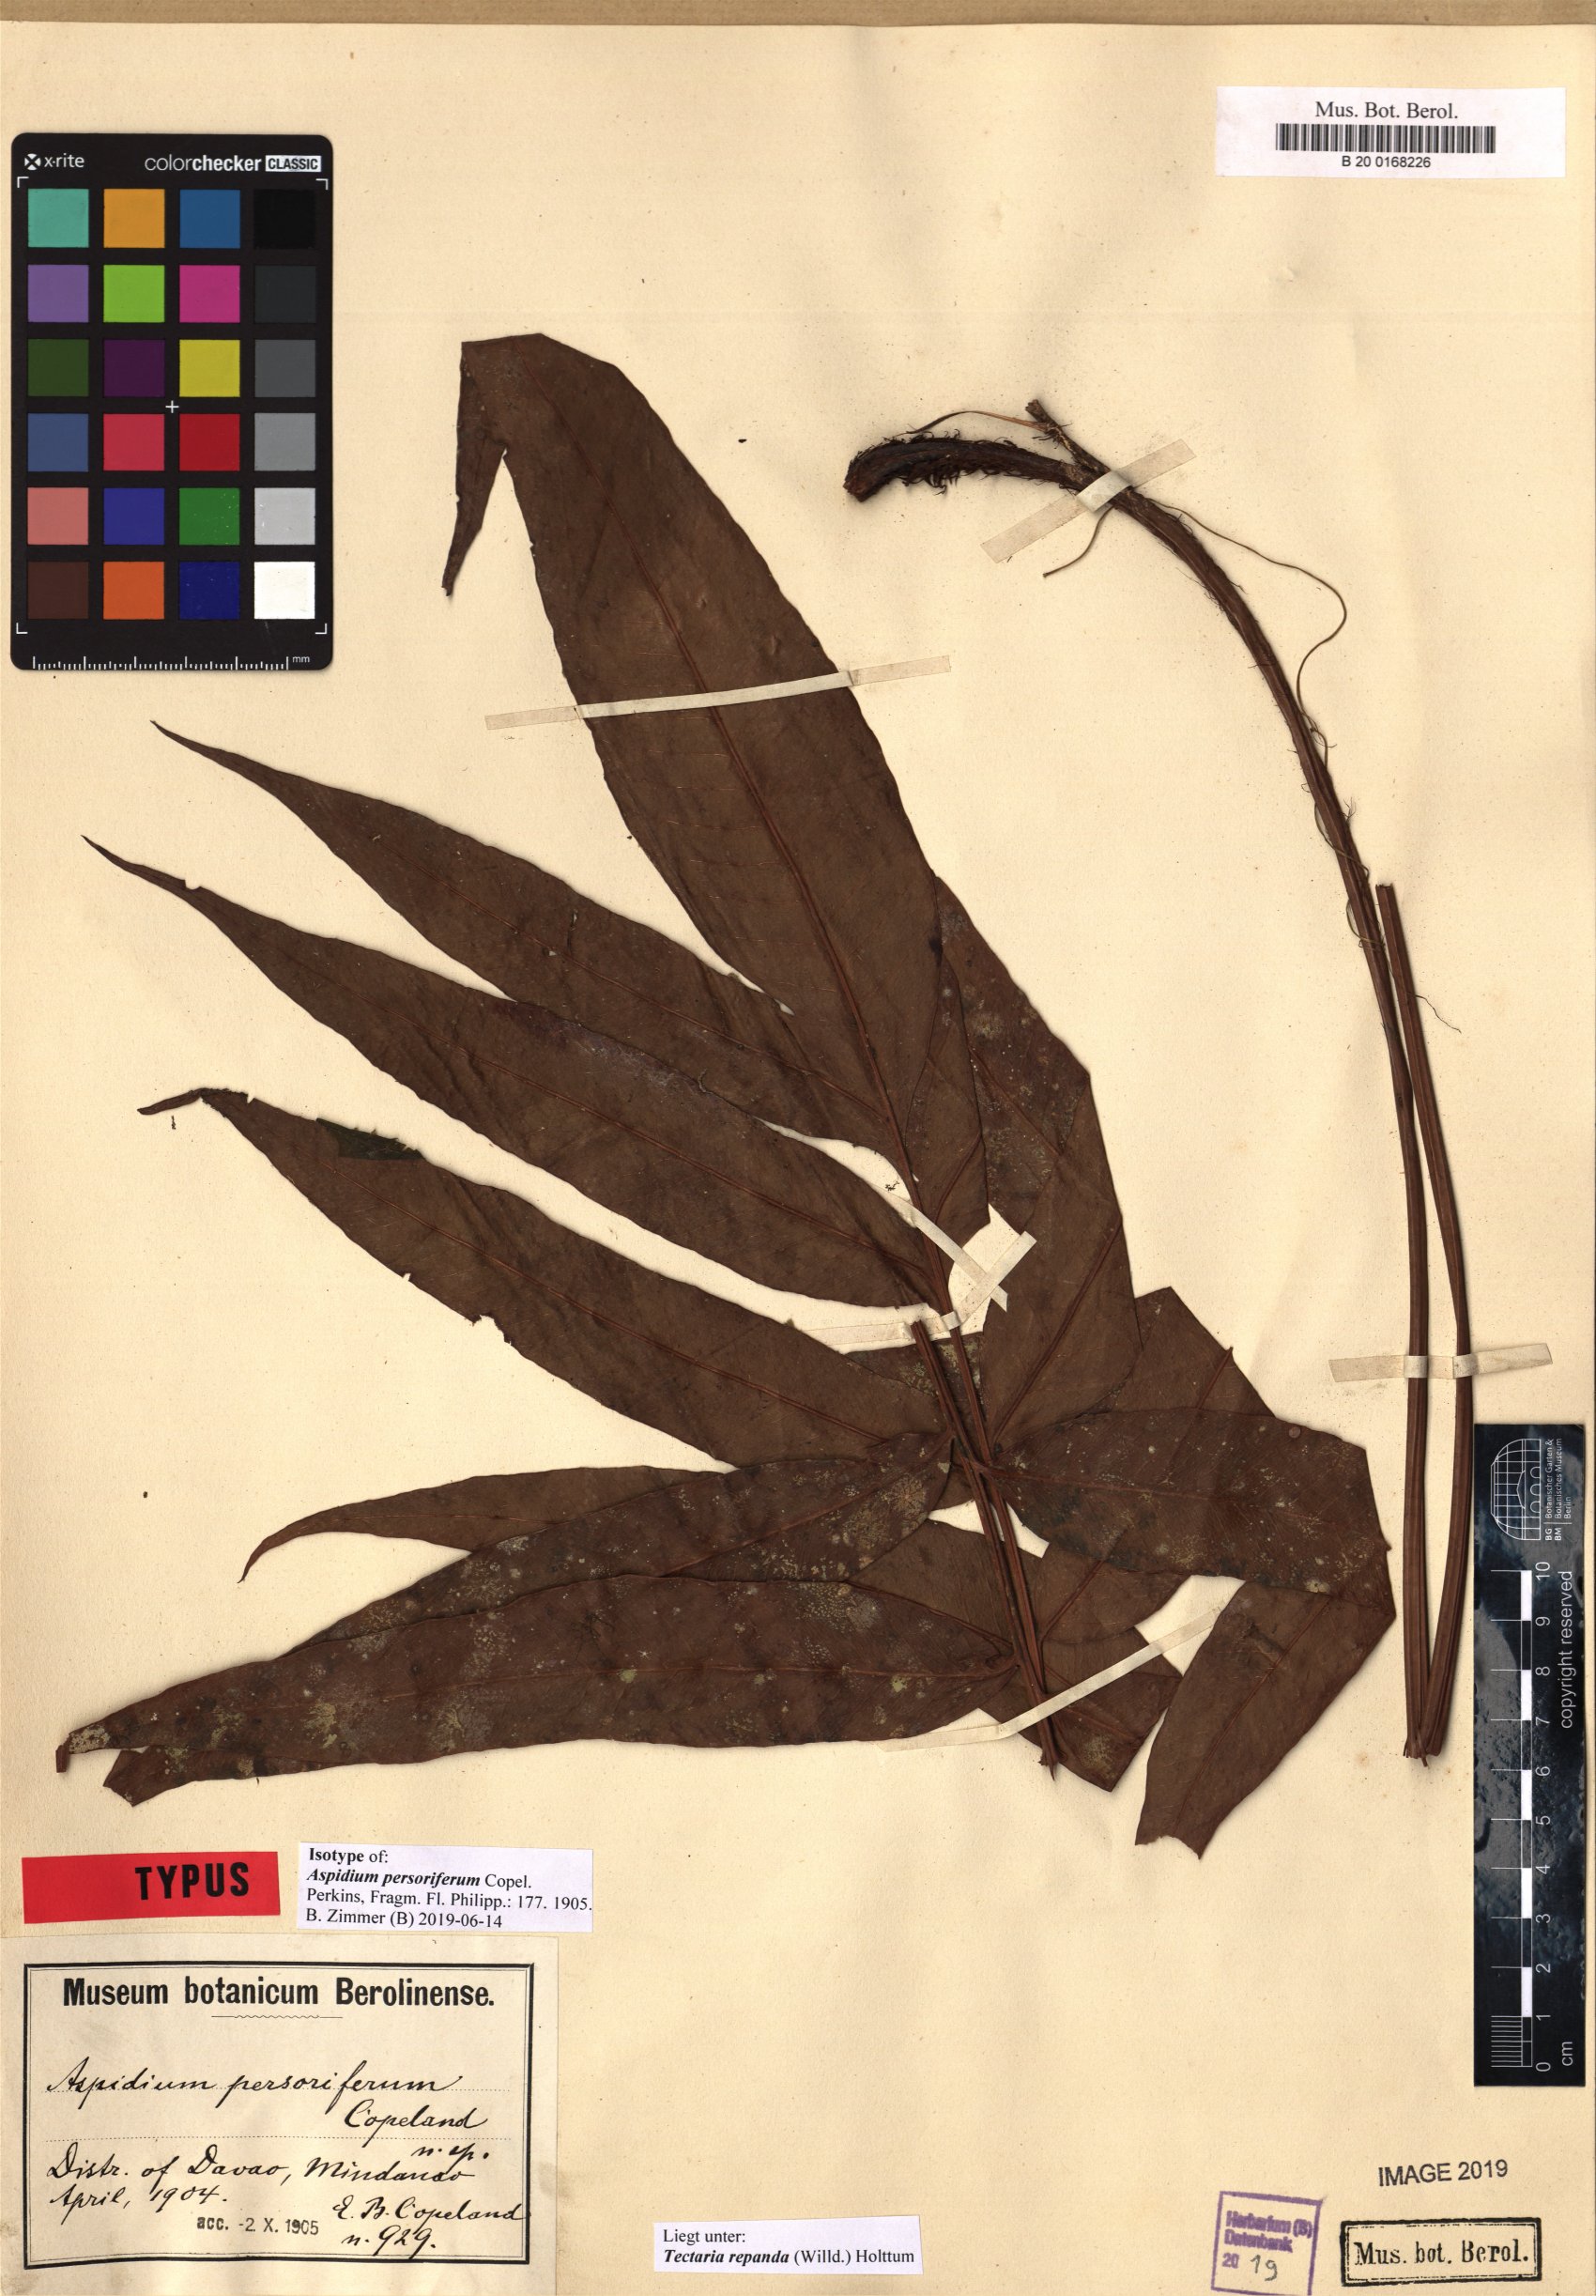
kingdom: Plantae
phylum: Tracheophyta
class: Polypodiopsida
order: Polypodiales
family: Tectariaceae
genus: Tectaria
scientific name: Tectaria repanda
